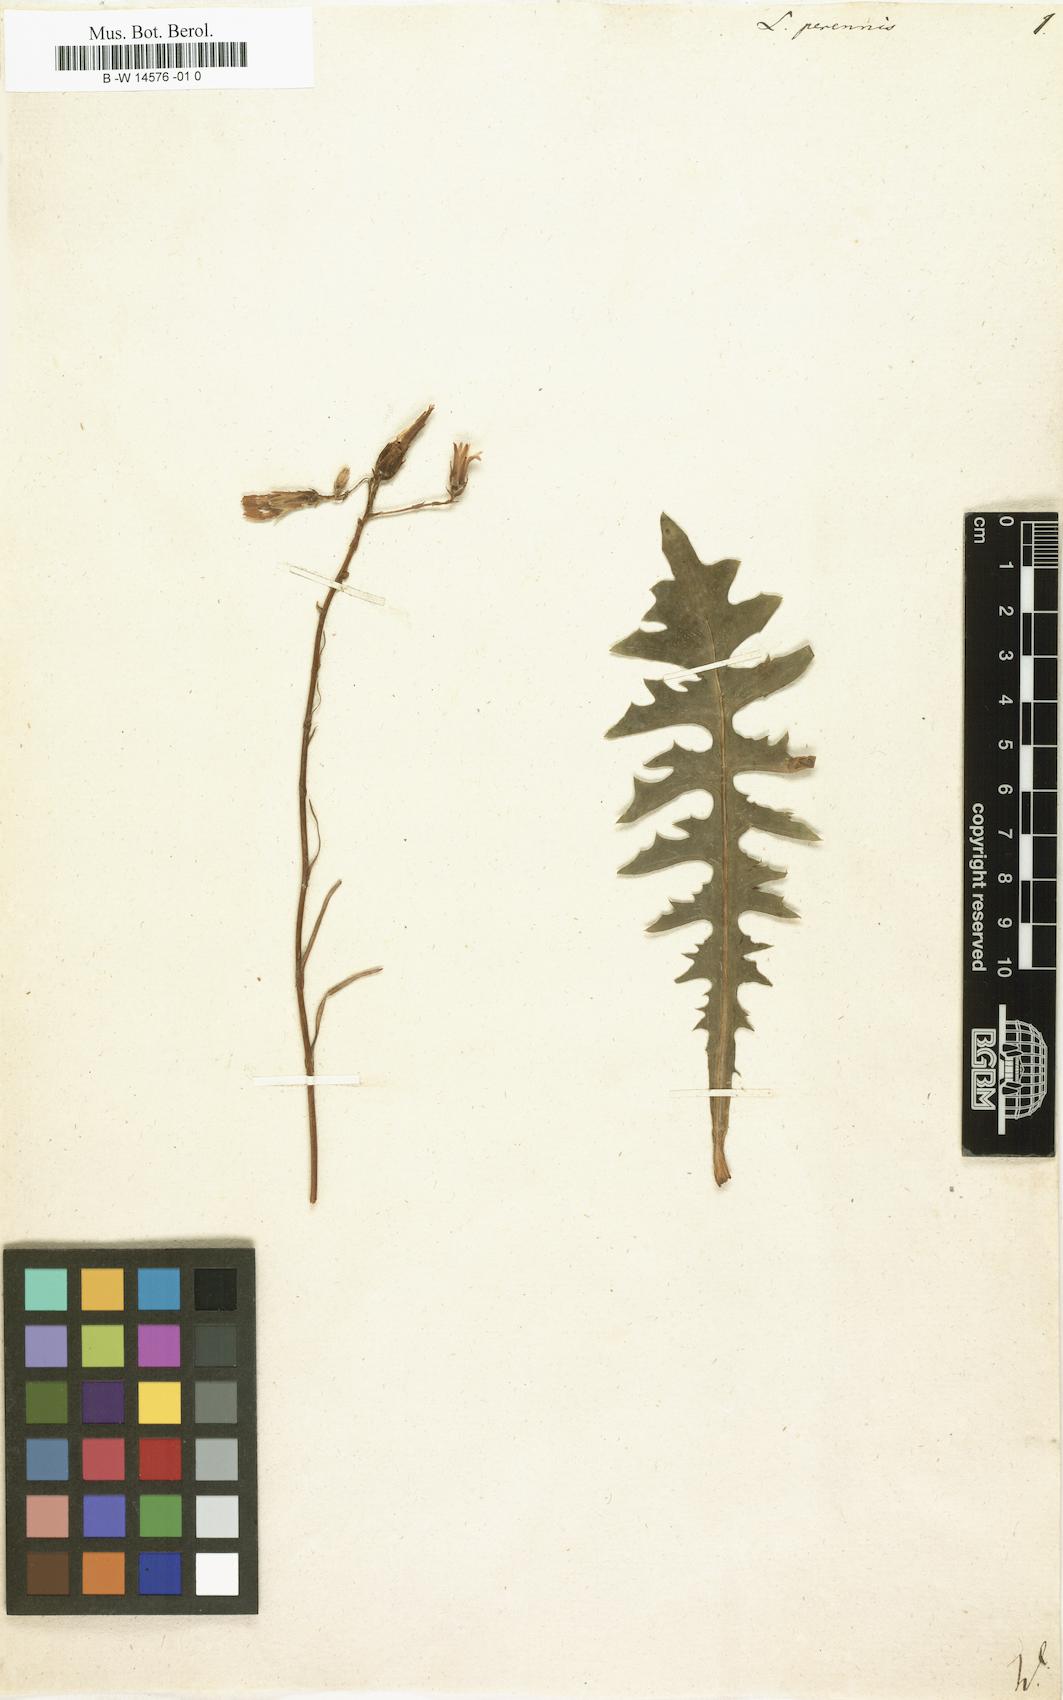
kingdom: Plantae
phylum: Tracheophyta
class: Magnoliopsida
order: Asterales
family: Asteraceae
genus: Lactuca
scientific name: Lactuca perennis
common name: Mountain lettuce
